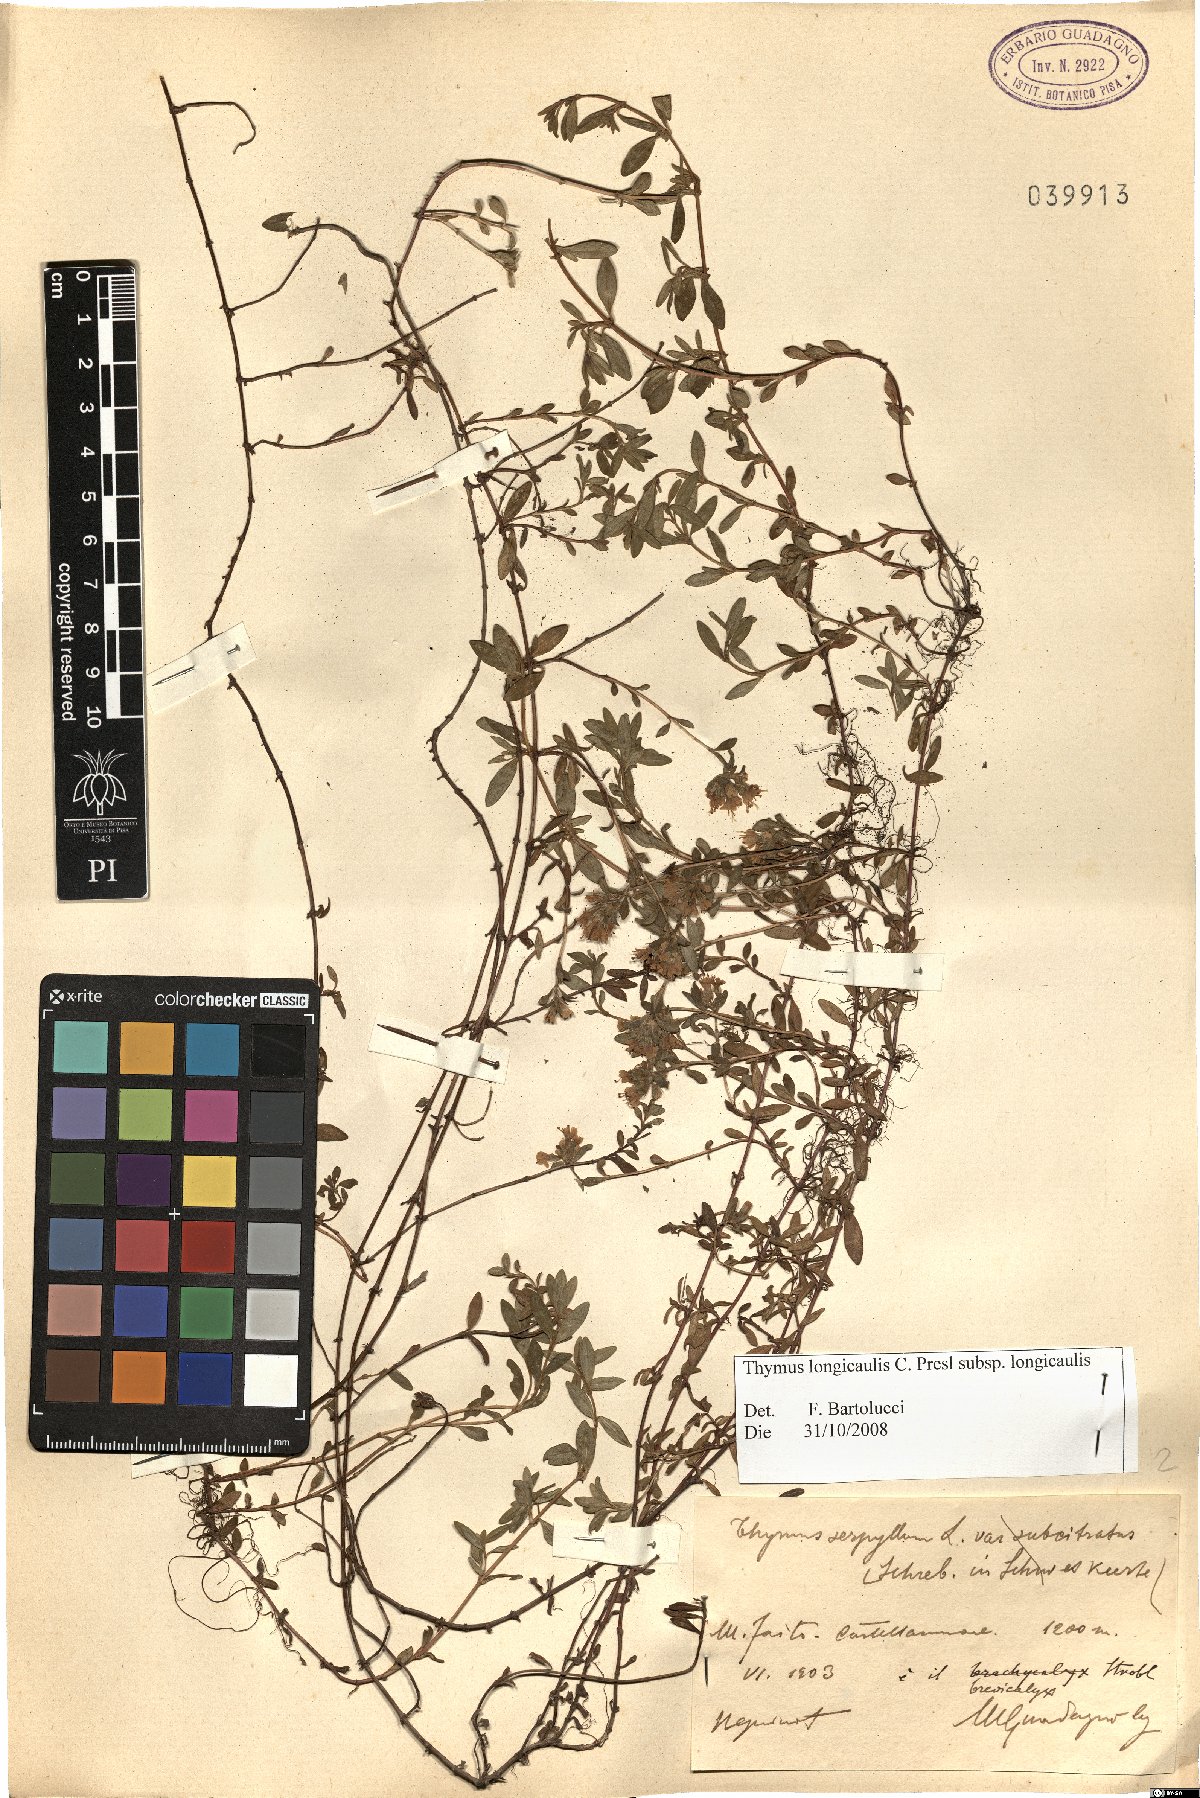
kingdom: Plantae
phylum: Tracheophyta
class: Magnoliopsida
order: Lamiales
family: Lamiaceae
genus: Thymus
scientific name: Thymus longicaulis
